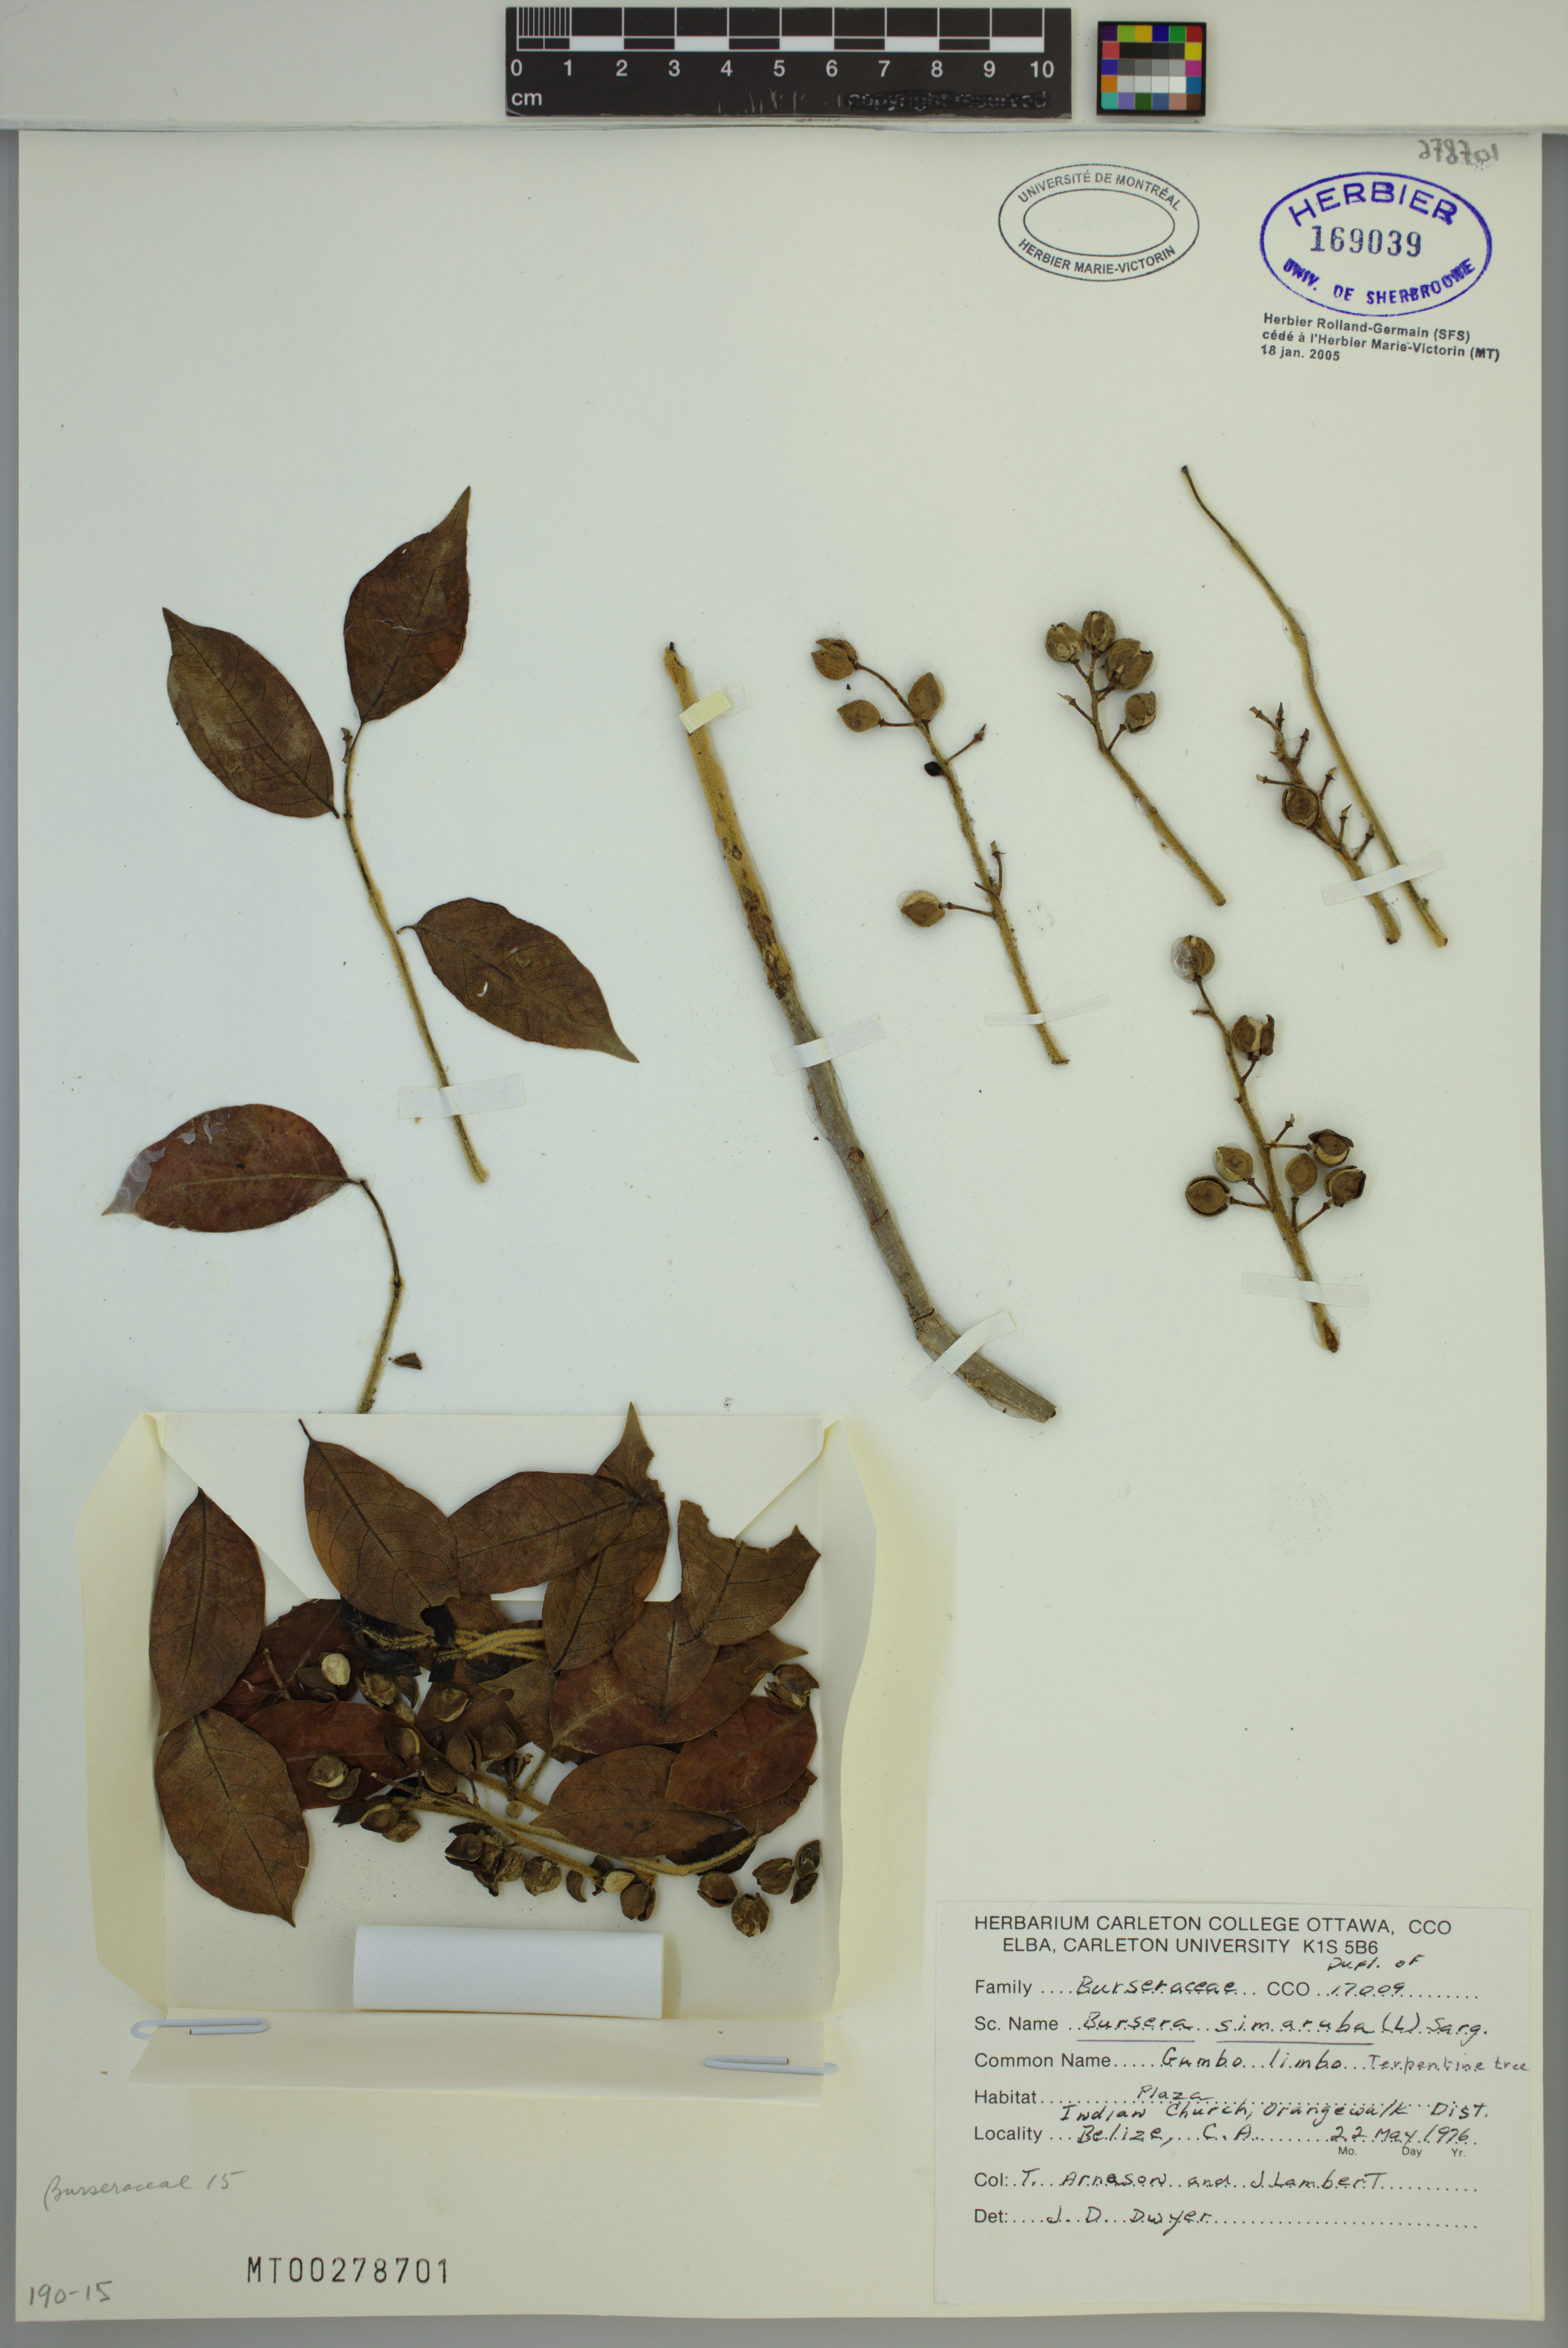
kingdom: Plantae
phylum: Tracheophyta
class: Magnoliopsida
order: Sapindales
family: Burseraceae
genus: Bursera
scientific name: Bursera simaruba
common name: Turpentine tree
